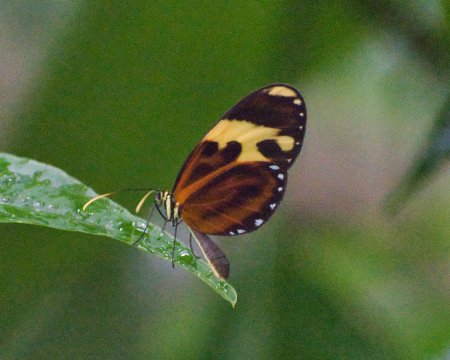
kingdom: Animalia
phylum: Arthropoda
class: Insecta
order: Lepidoptera
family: Nymphalidae
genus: Ceratinia
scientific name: Ceratinia tutia
